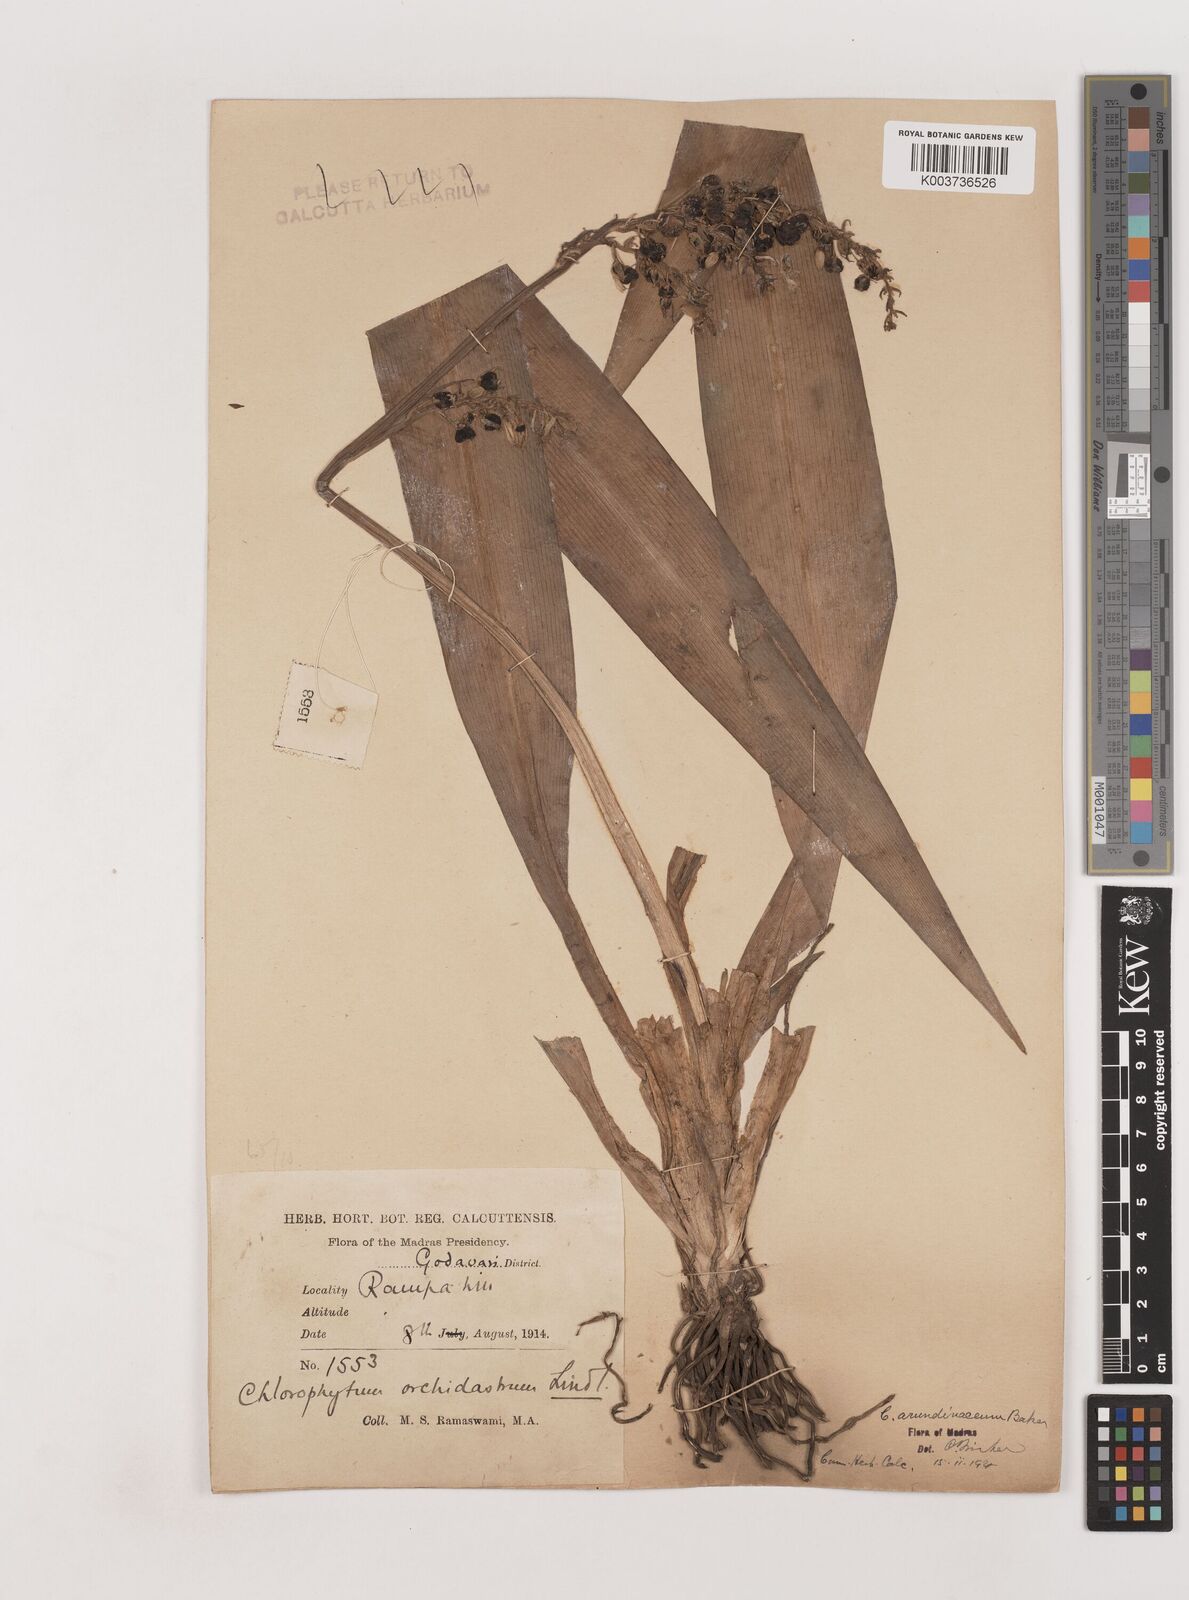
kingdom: Plantae
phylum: Tracheophyta
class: Liliopsida
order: Asparagales
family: Asparagaceae
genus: Chlorophytum
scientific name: Chlorophytum arundinaceum
